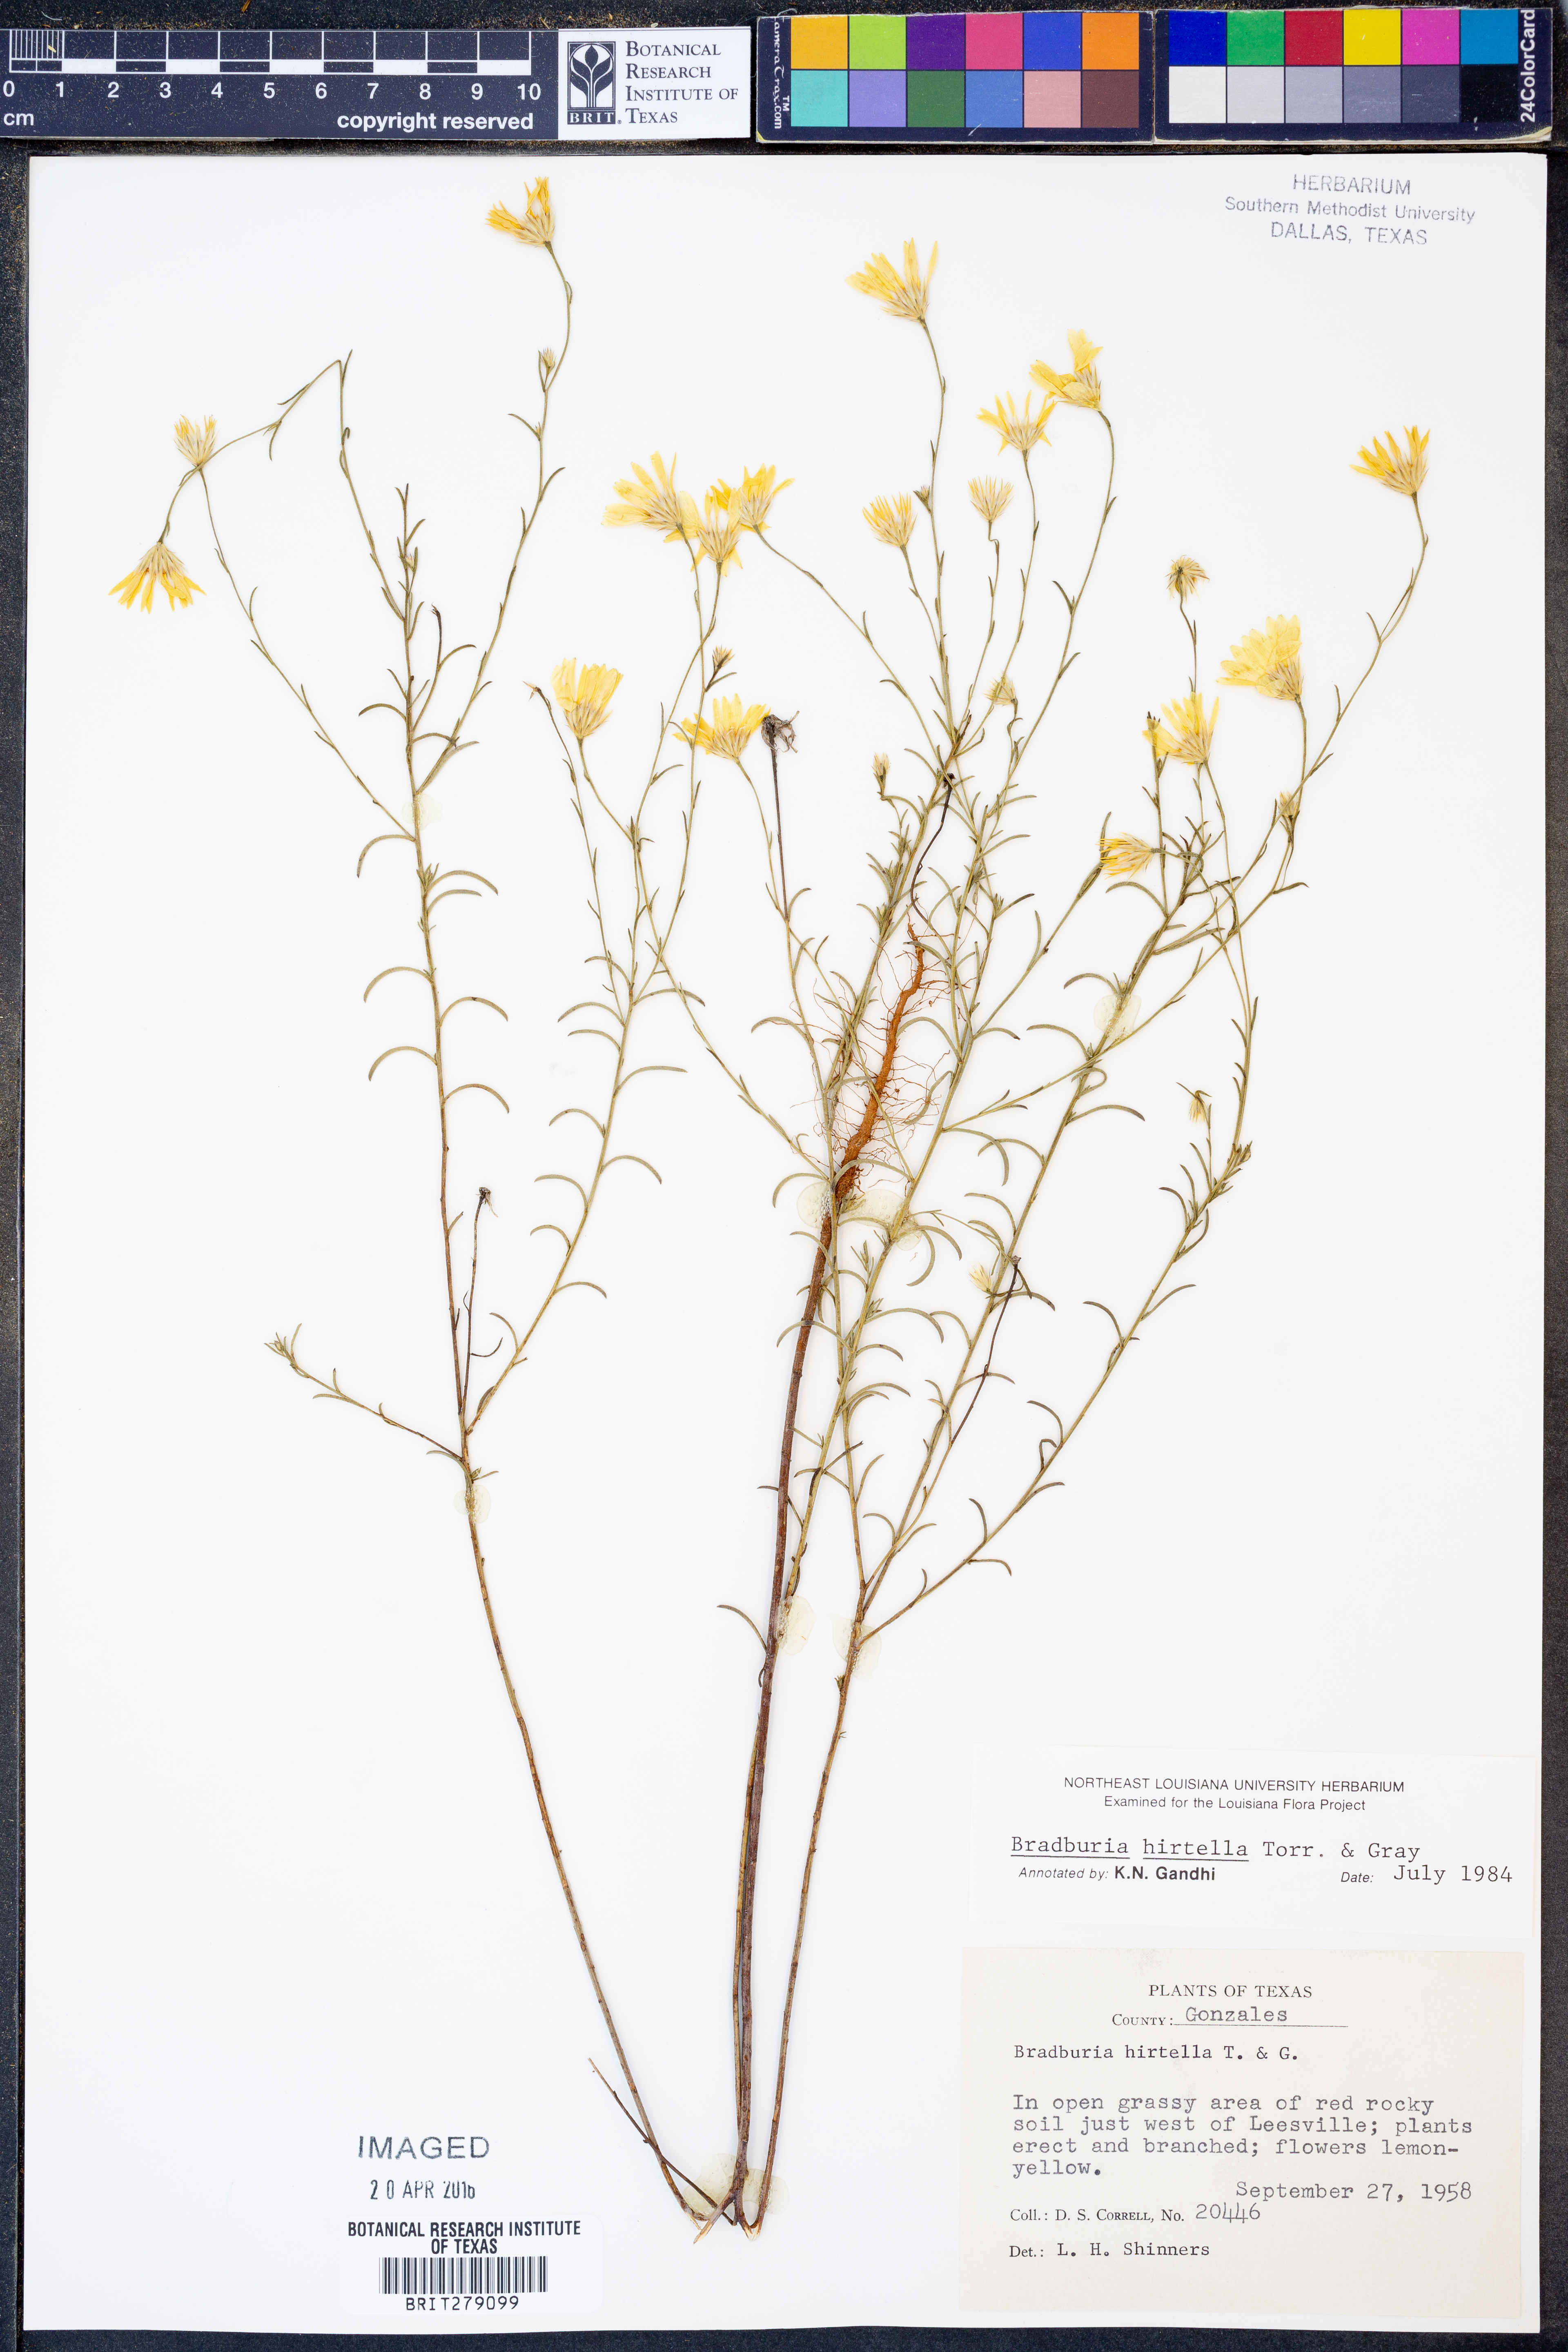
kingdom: Plantae
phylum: Tracheophyta
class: Magnoliopsida
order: Asterales
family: Asteraceae
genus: Bradburia
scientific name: Bradburia hirtella
